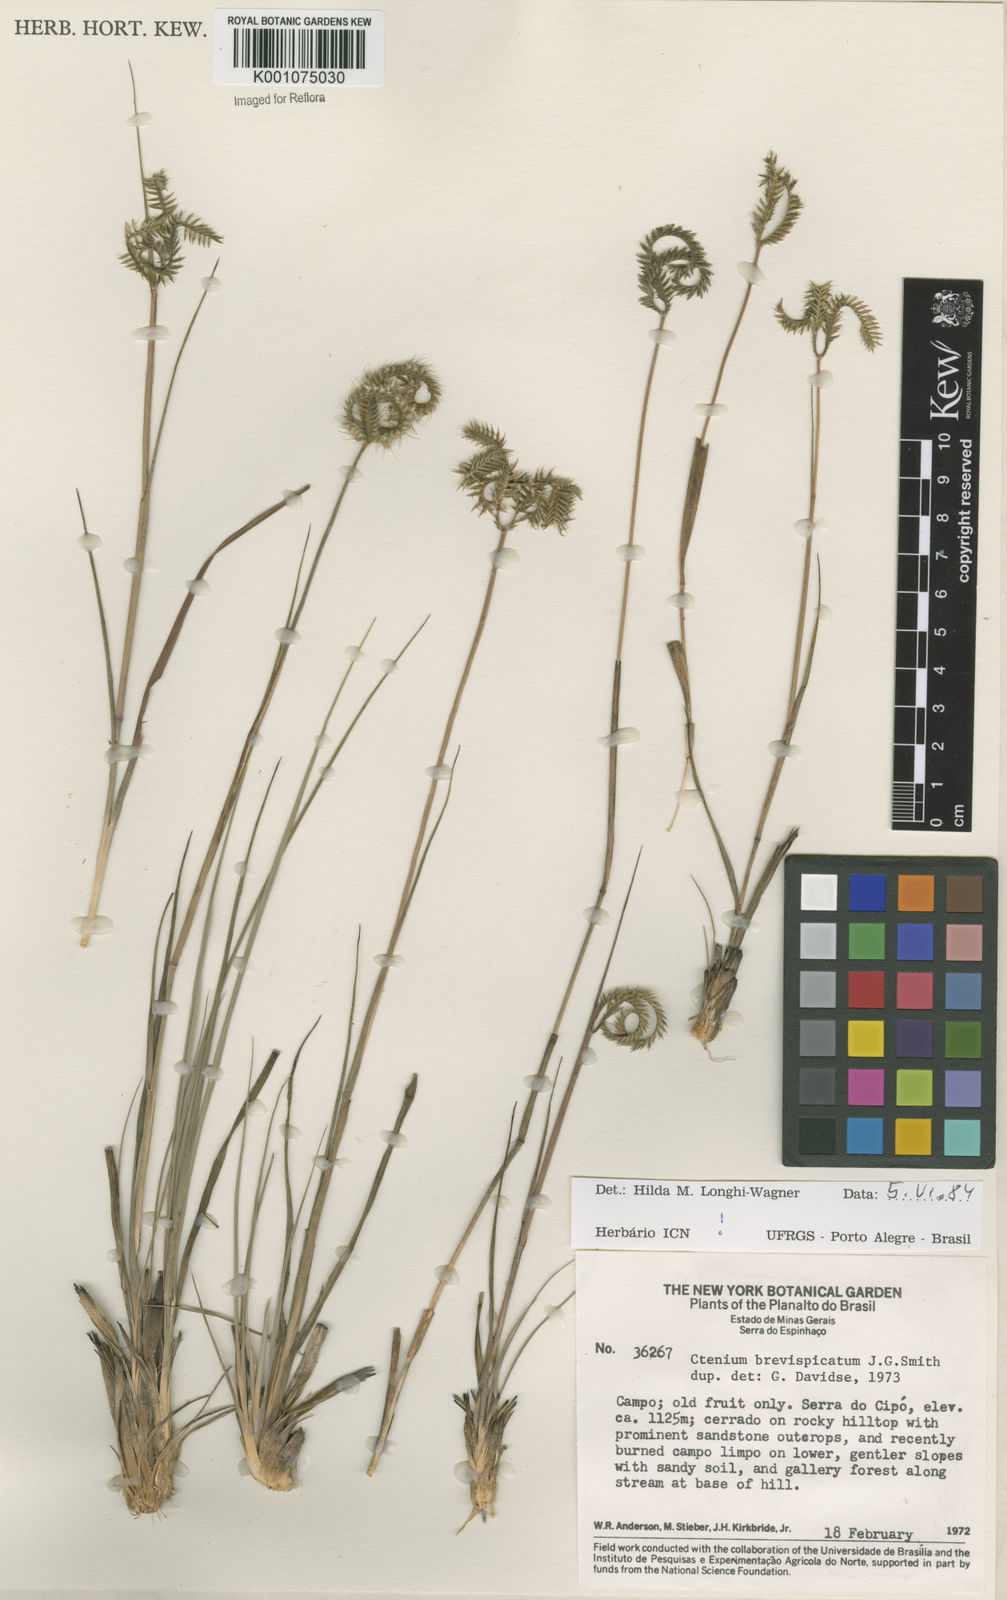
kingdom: Plantae
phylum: Tracheophyta
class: Liliopsida
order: Poales
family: Poaceae
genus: Ctenium
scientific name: Ctenium brevispicatum
